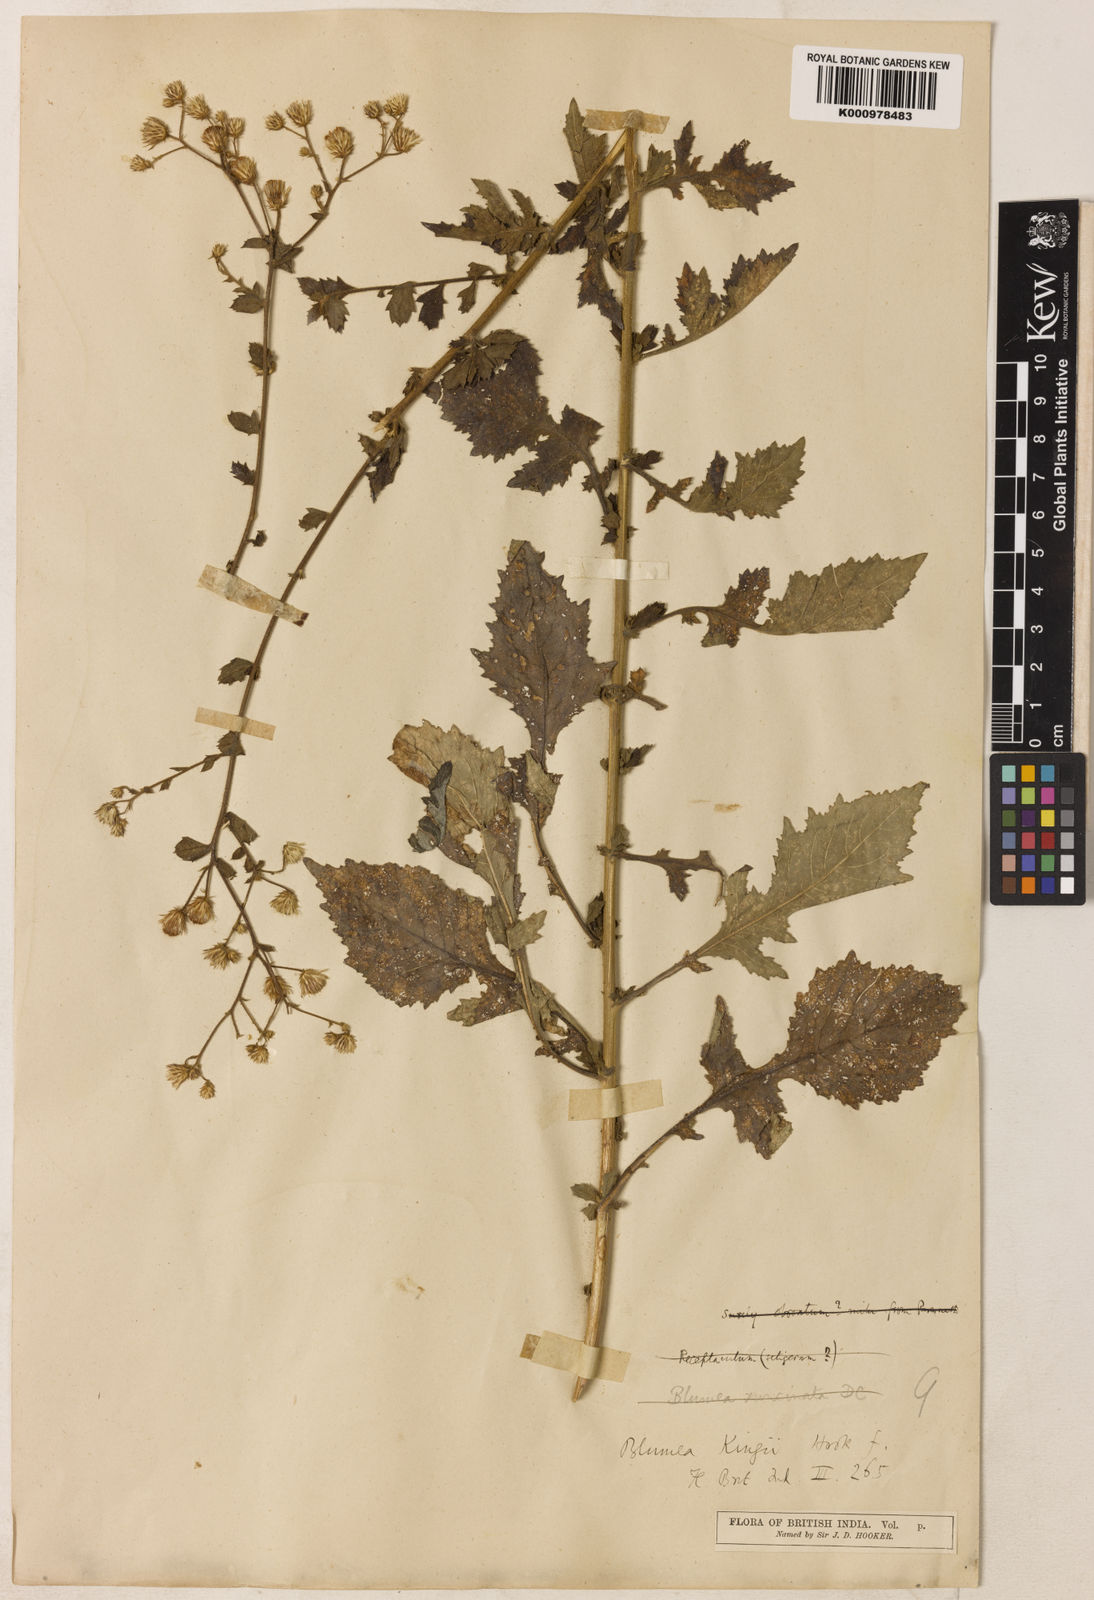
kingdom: Plantae
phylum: Tracheophyta
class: Magnoliopsida
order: Asterales
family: Asteraceae
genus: Pluchea
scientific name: Pluchea paniculata
